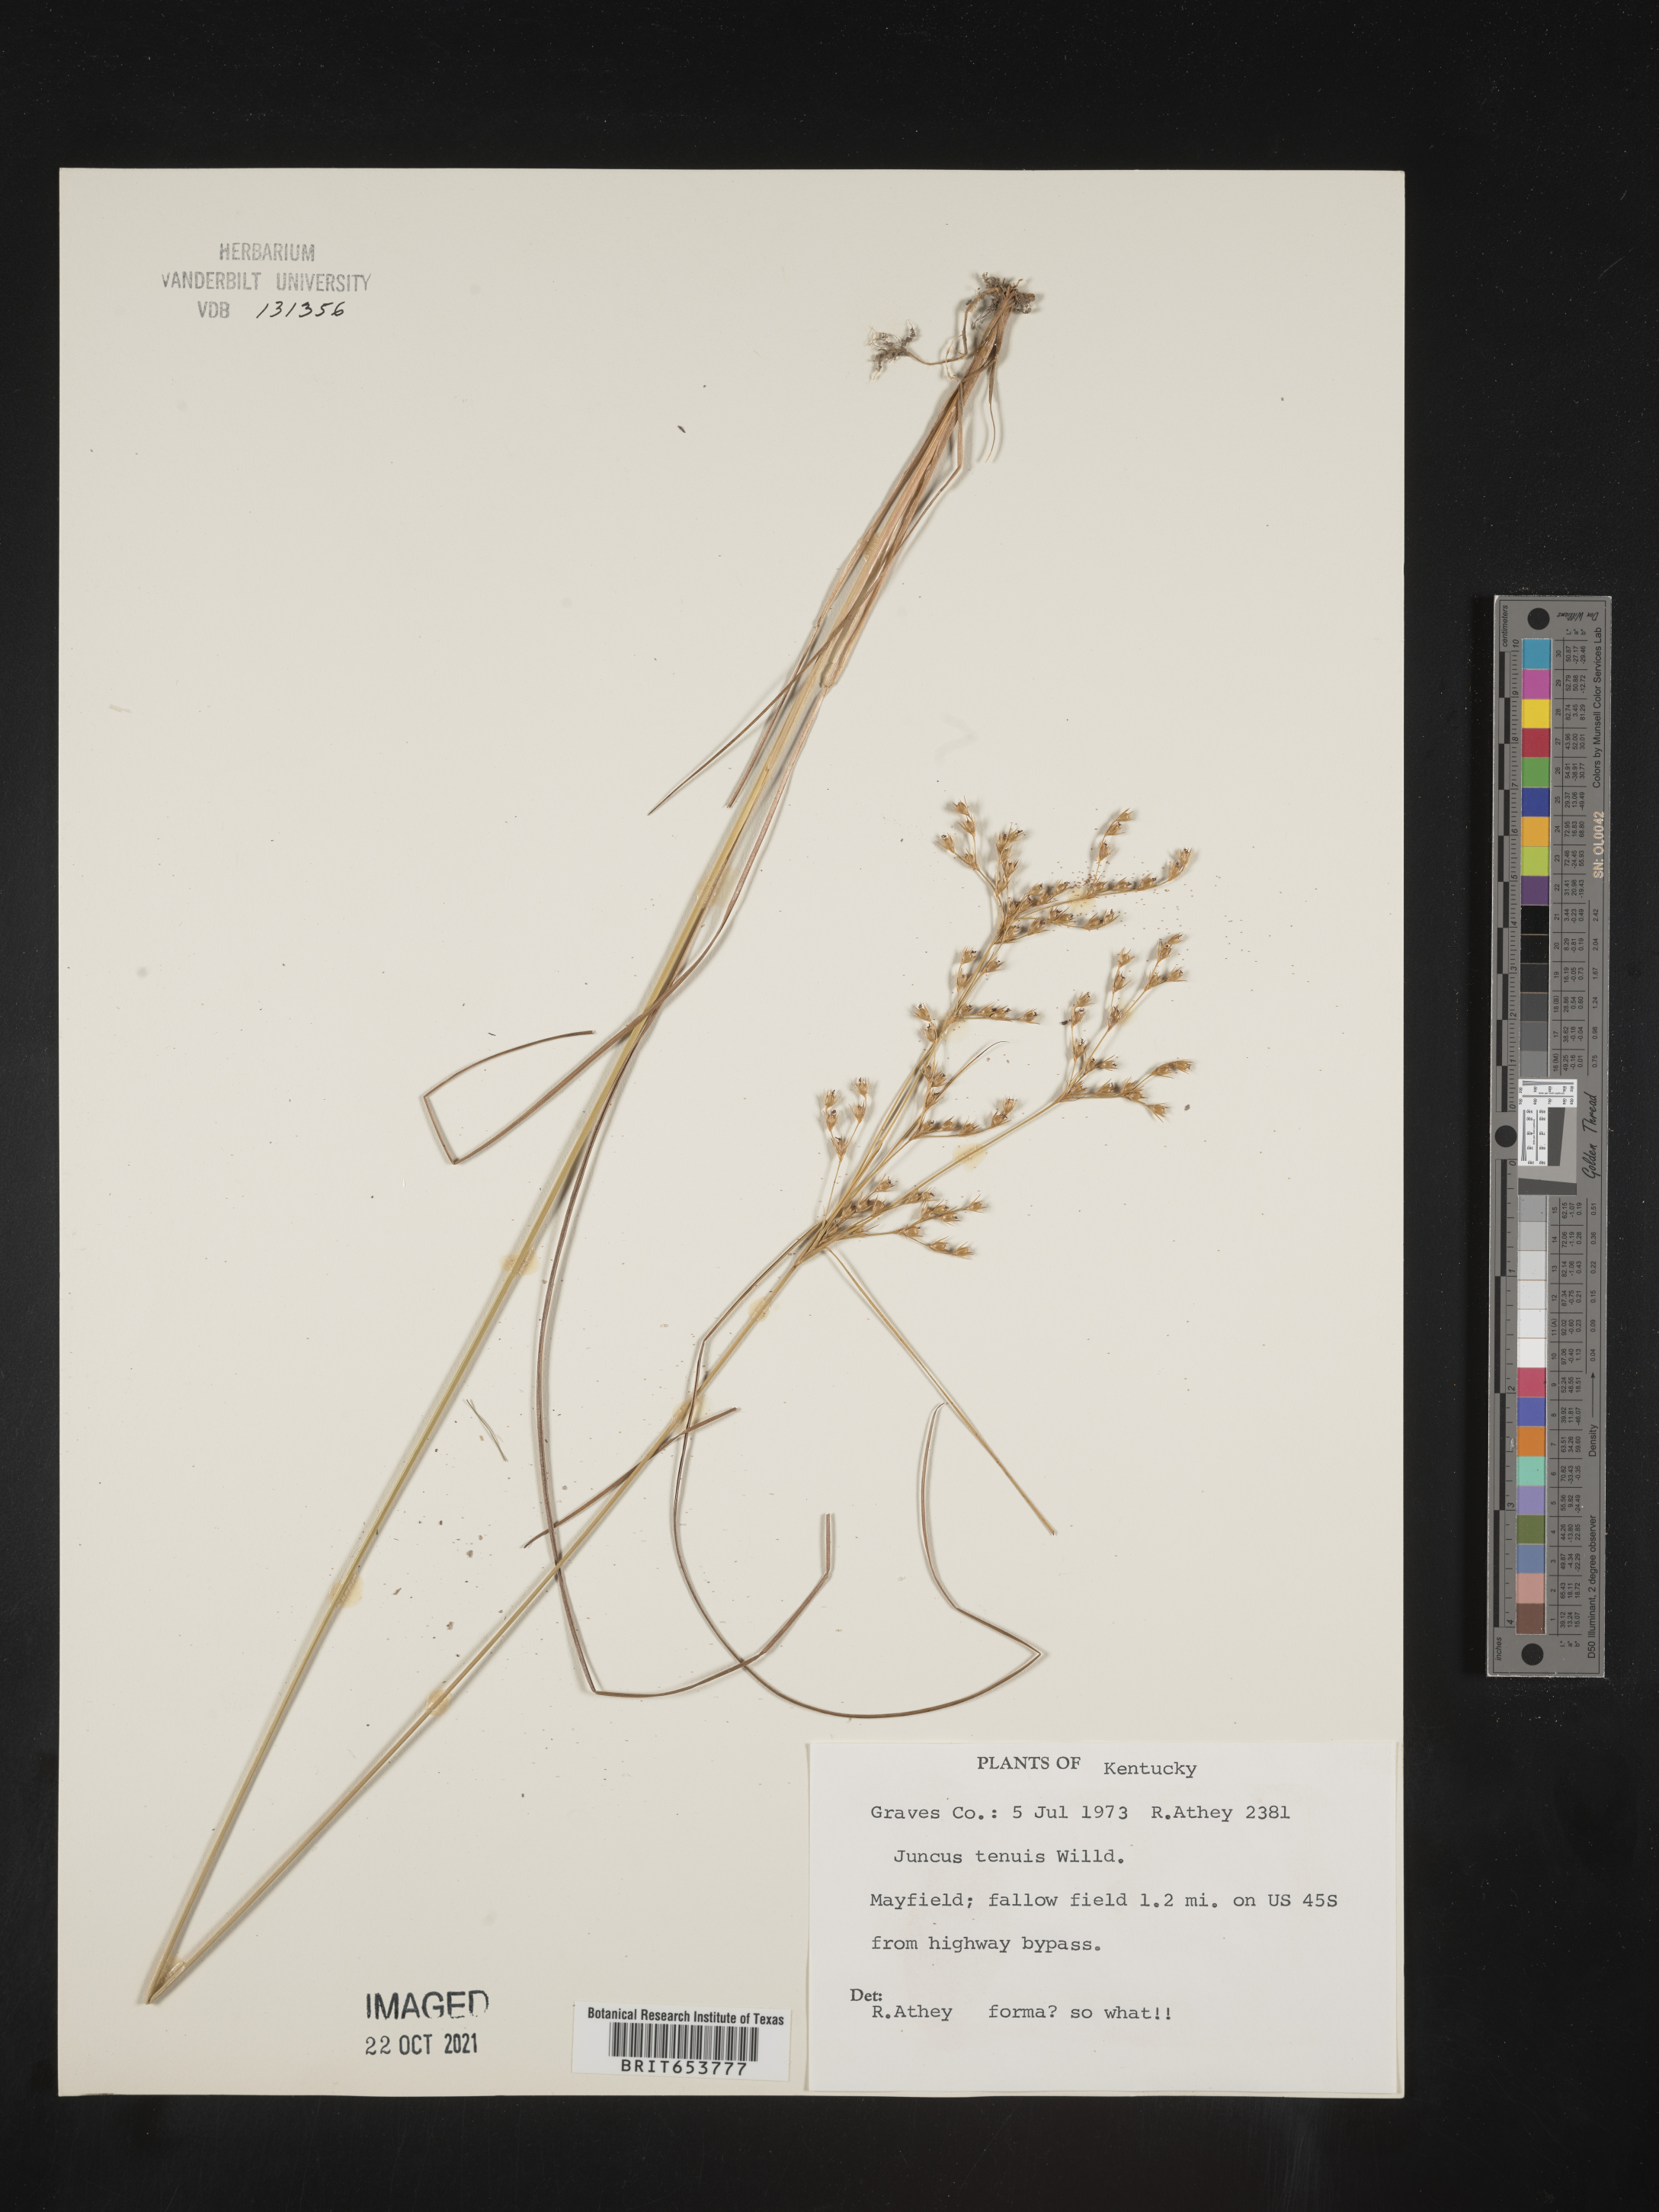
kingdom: Plantae
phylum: Tracheophyta
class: Liliopsida
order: Poales
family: Juncaceae
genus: Juncus
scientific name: Juncus tenuis
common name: Slender rush
